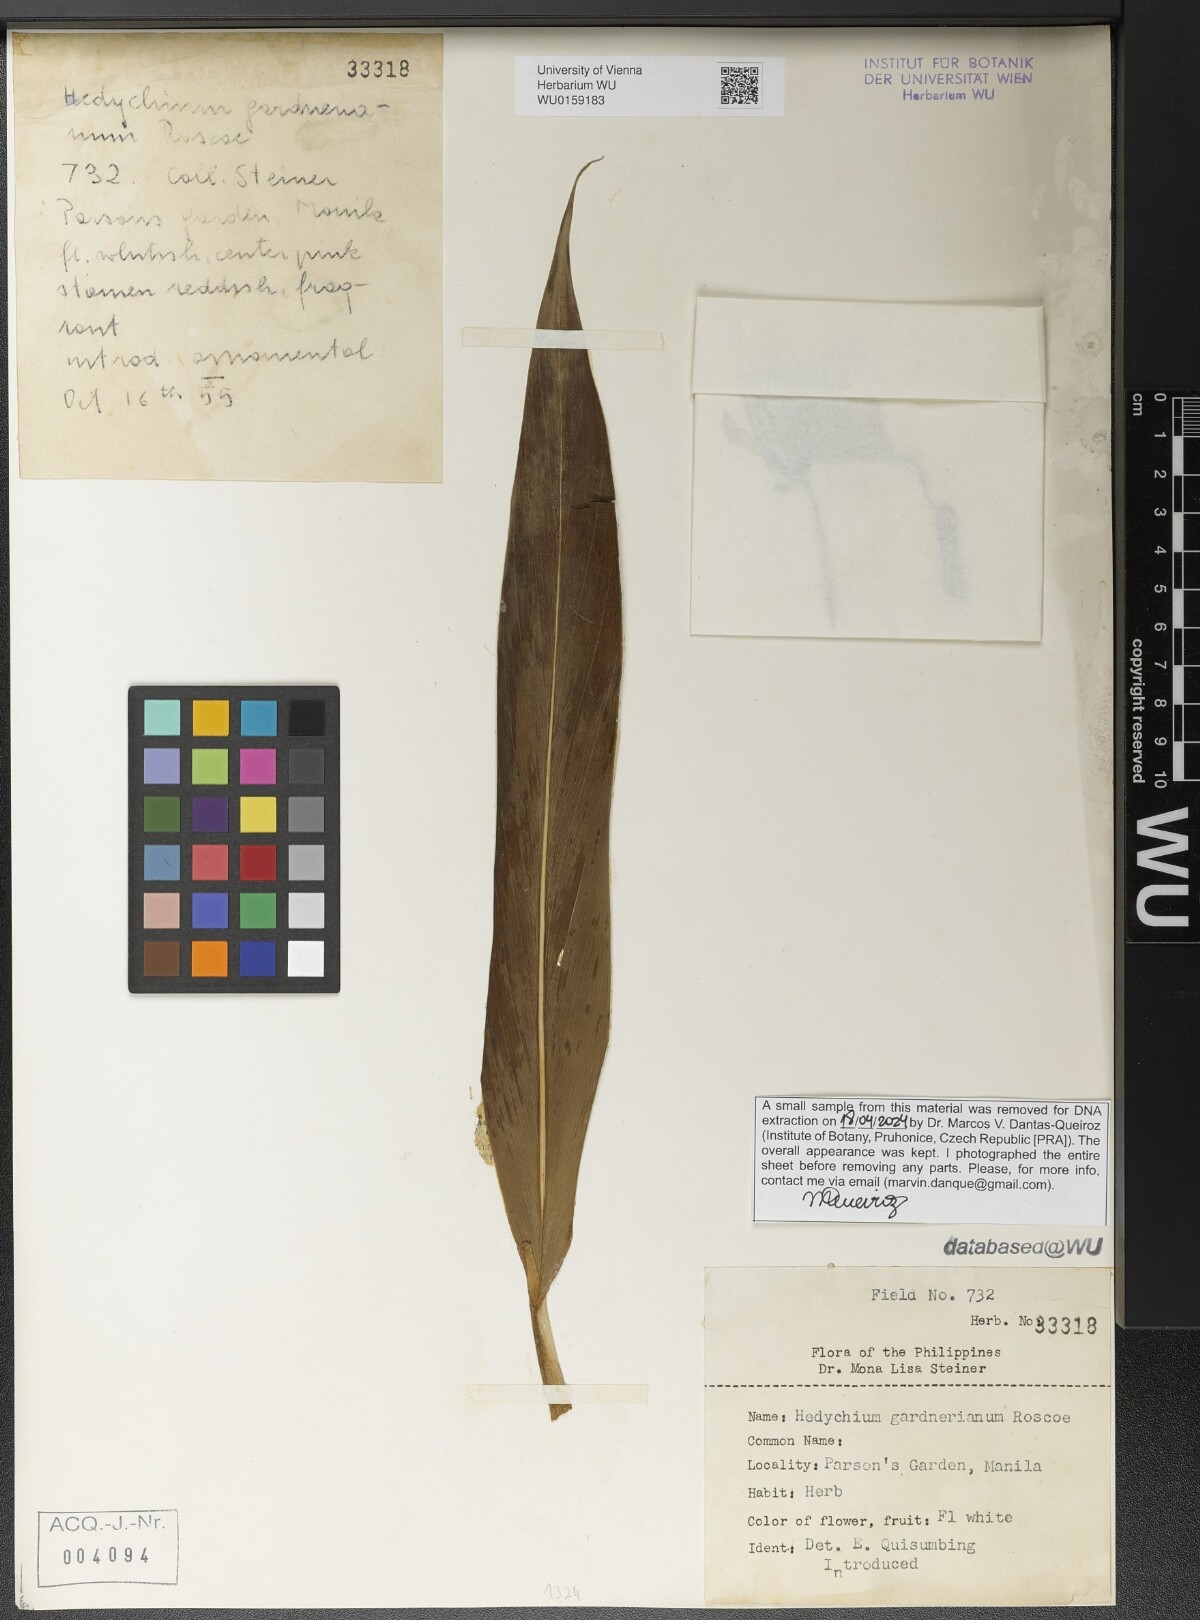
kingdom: Plantae
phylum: Tracheophyta
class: Liliopsida
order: Zingiberales
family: Zingiberaceae
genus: Hedychium
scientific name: Hedychium gardnerianum
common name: Himalayan ginger
